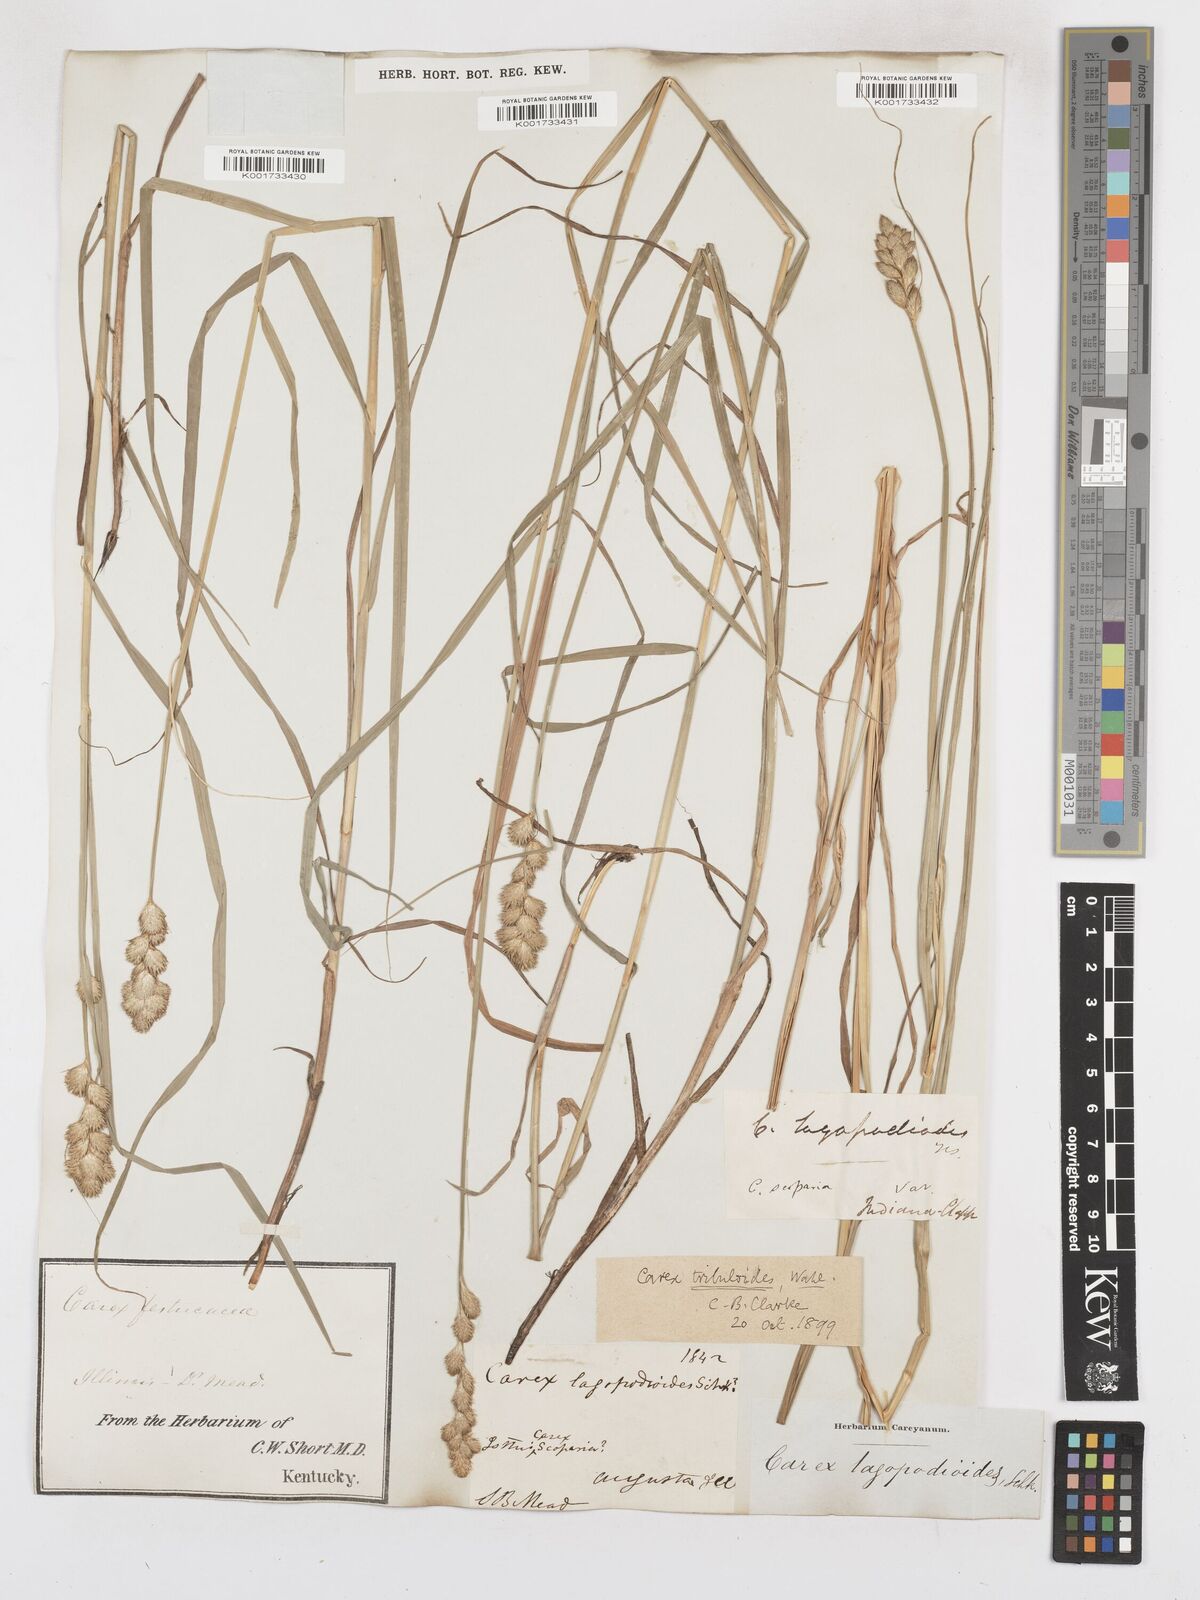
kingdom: Plantae
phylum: Tracheophyta
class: Liliopsida
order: Poales
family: Cyperaceae
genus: Carex
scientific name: Carex tribuloides
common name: Blunt broom sedge
